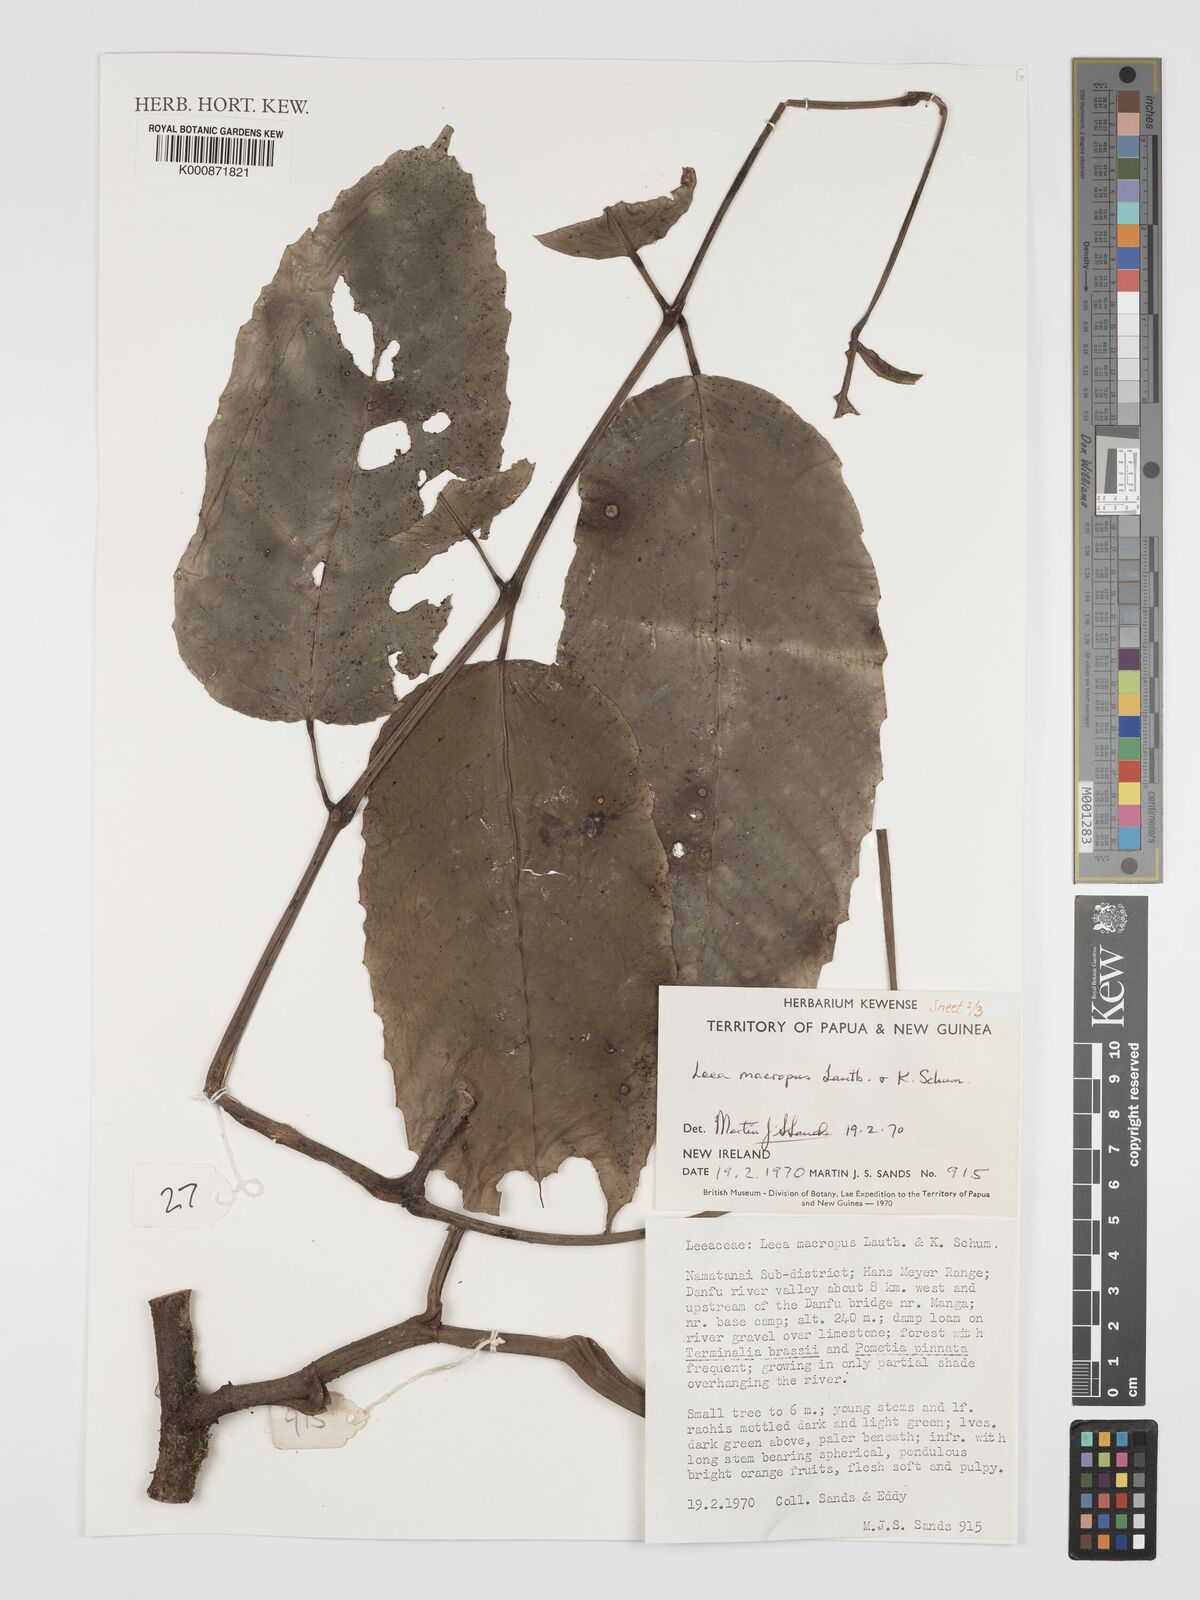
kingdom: Plantae
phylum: Tracheophyta
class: Magnoliopsida
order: Vitales
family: Vitaceae
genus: Leea
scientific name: Leea macropus
